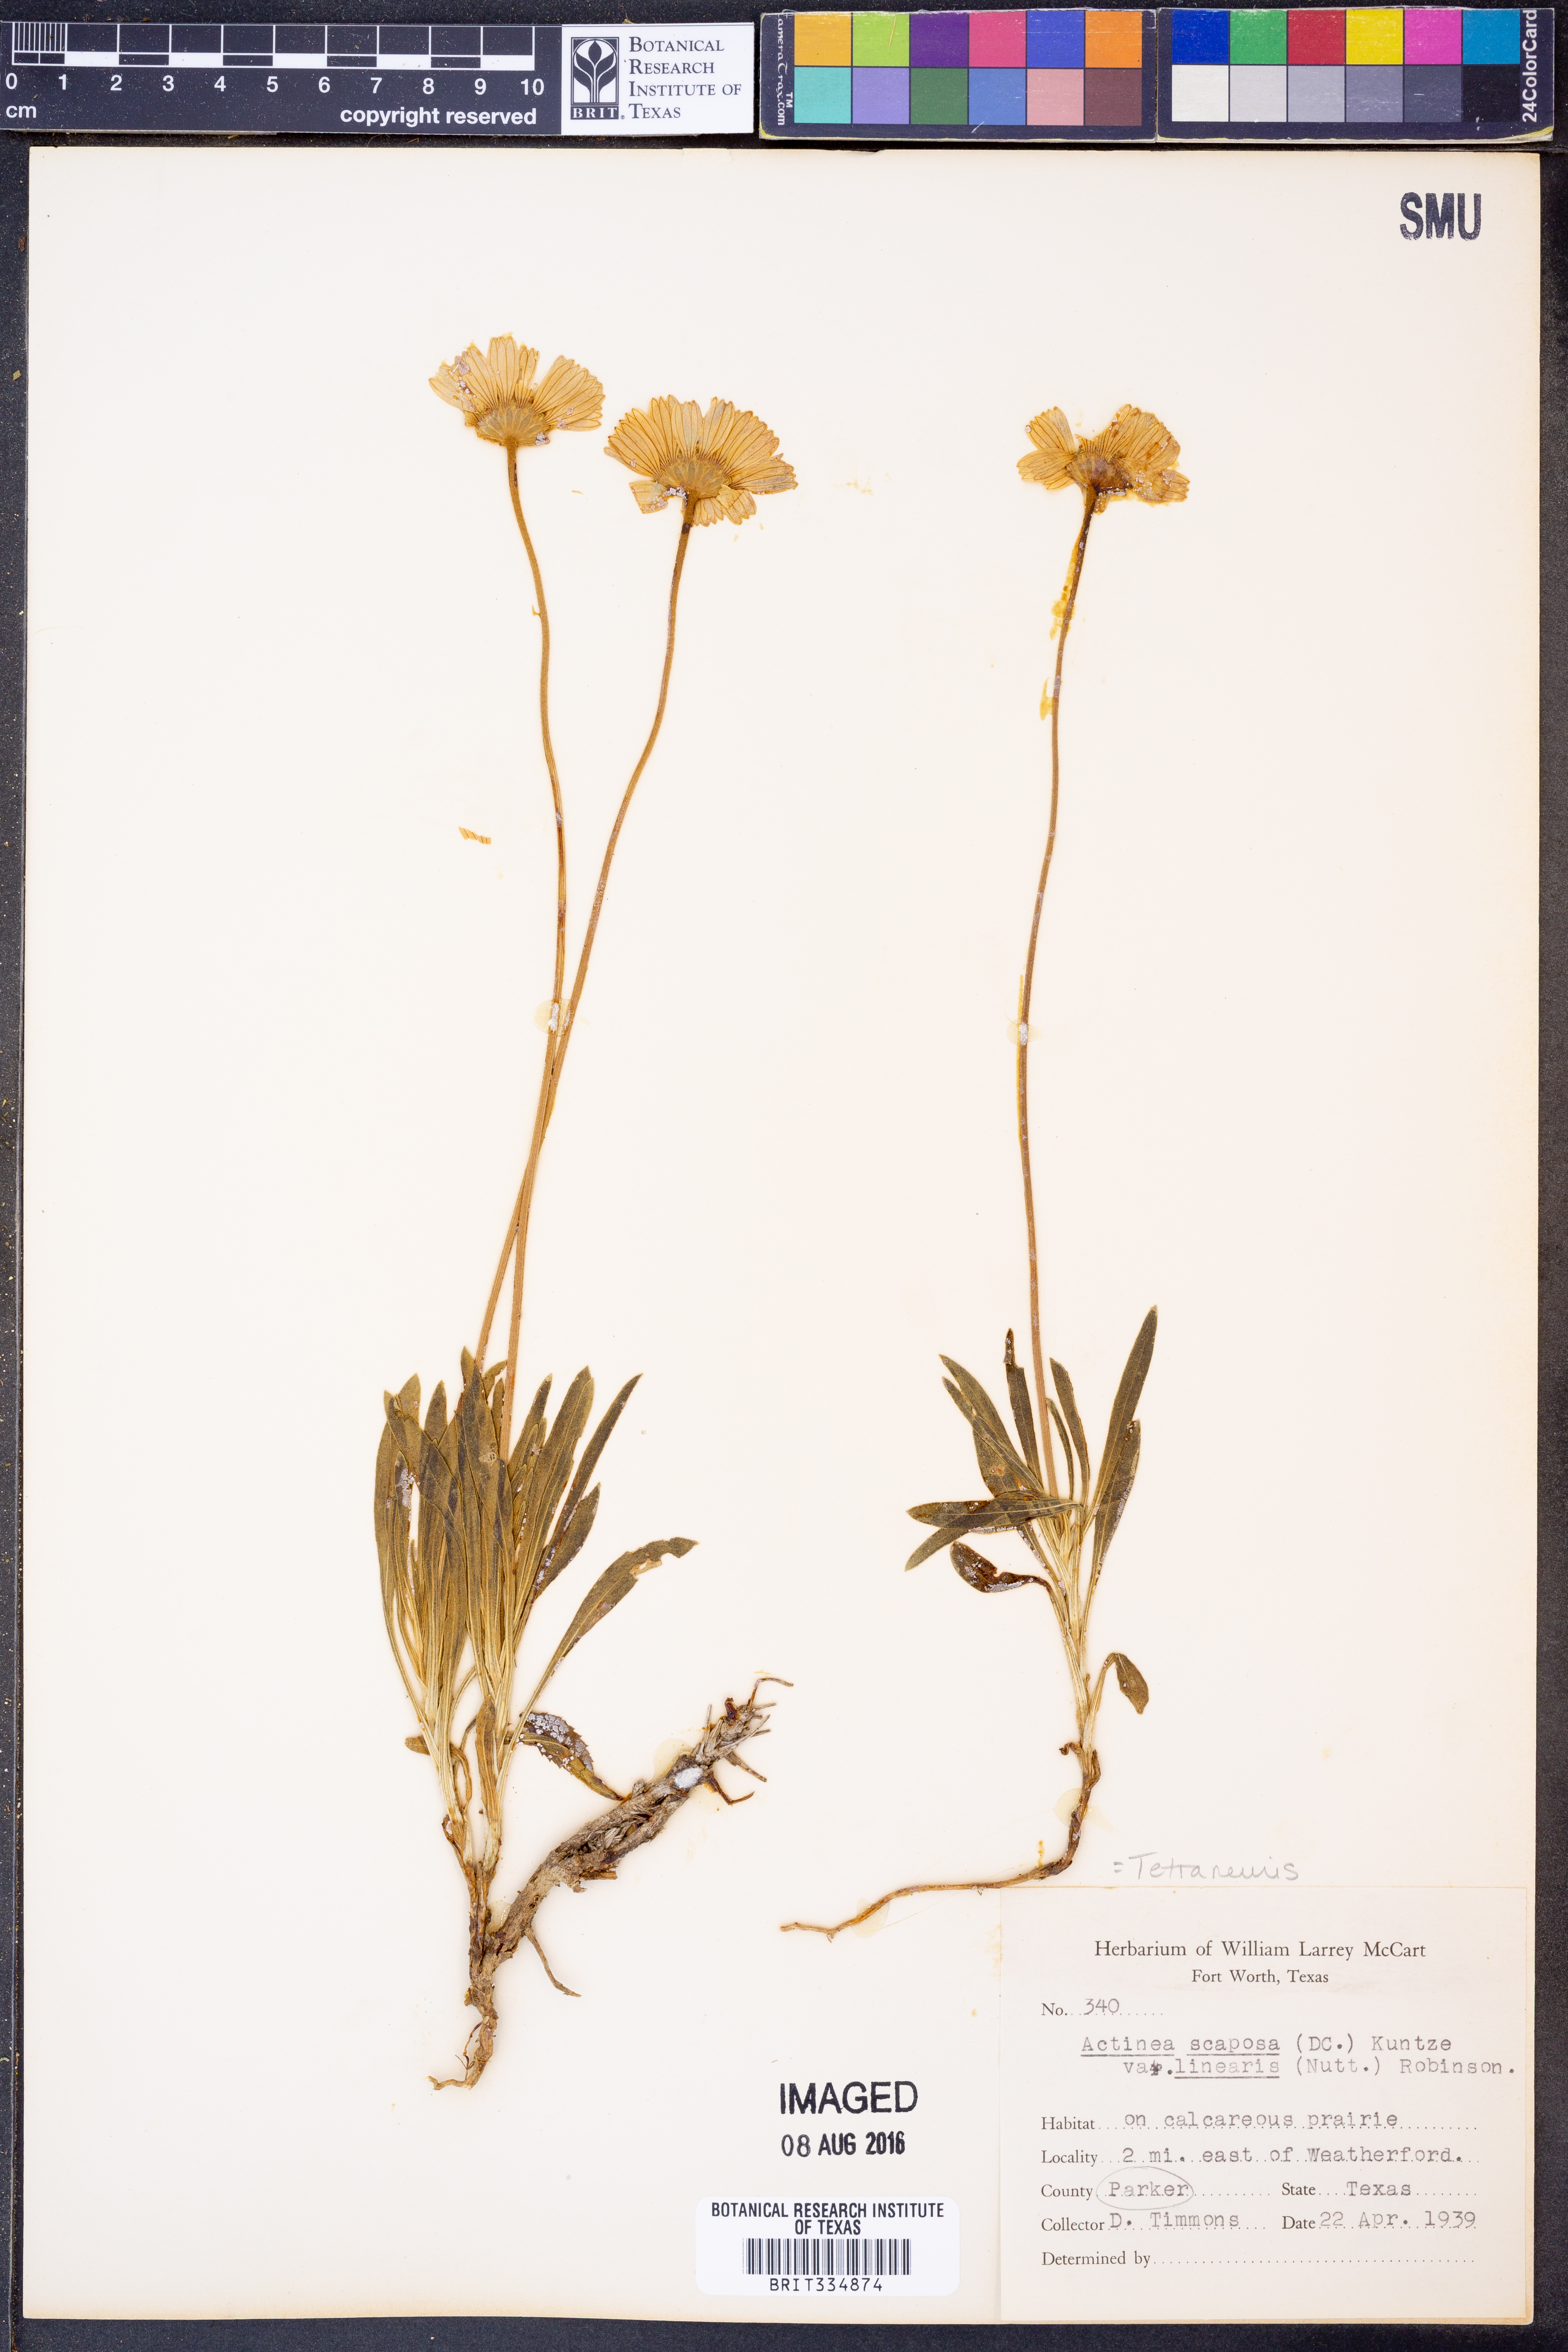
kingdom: Plantae
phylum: Tracheophyta
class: Magnoliopsida
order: Asterales
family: Asteraceae
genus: Tetraneuris
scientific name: Tetraneuris scaposa
